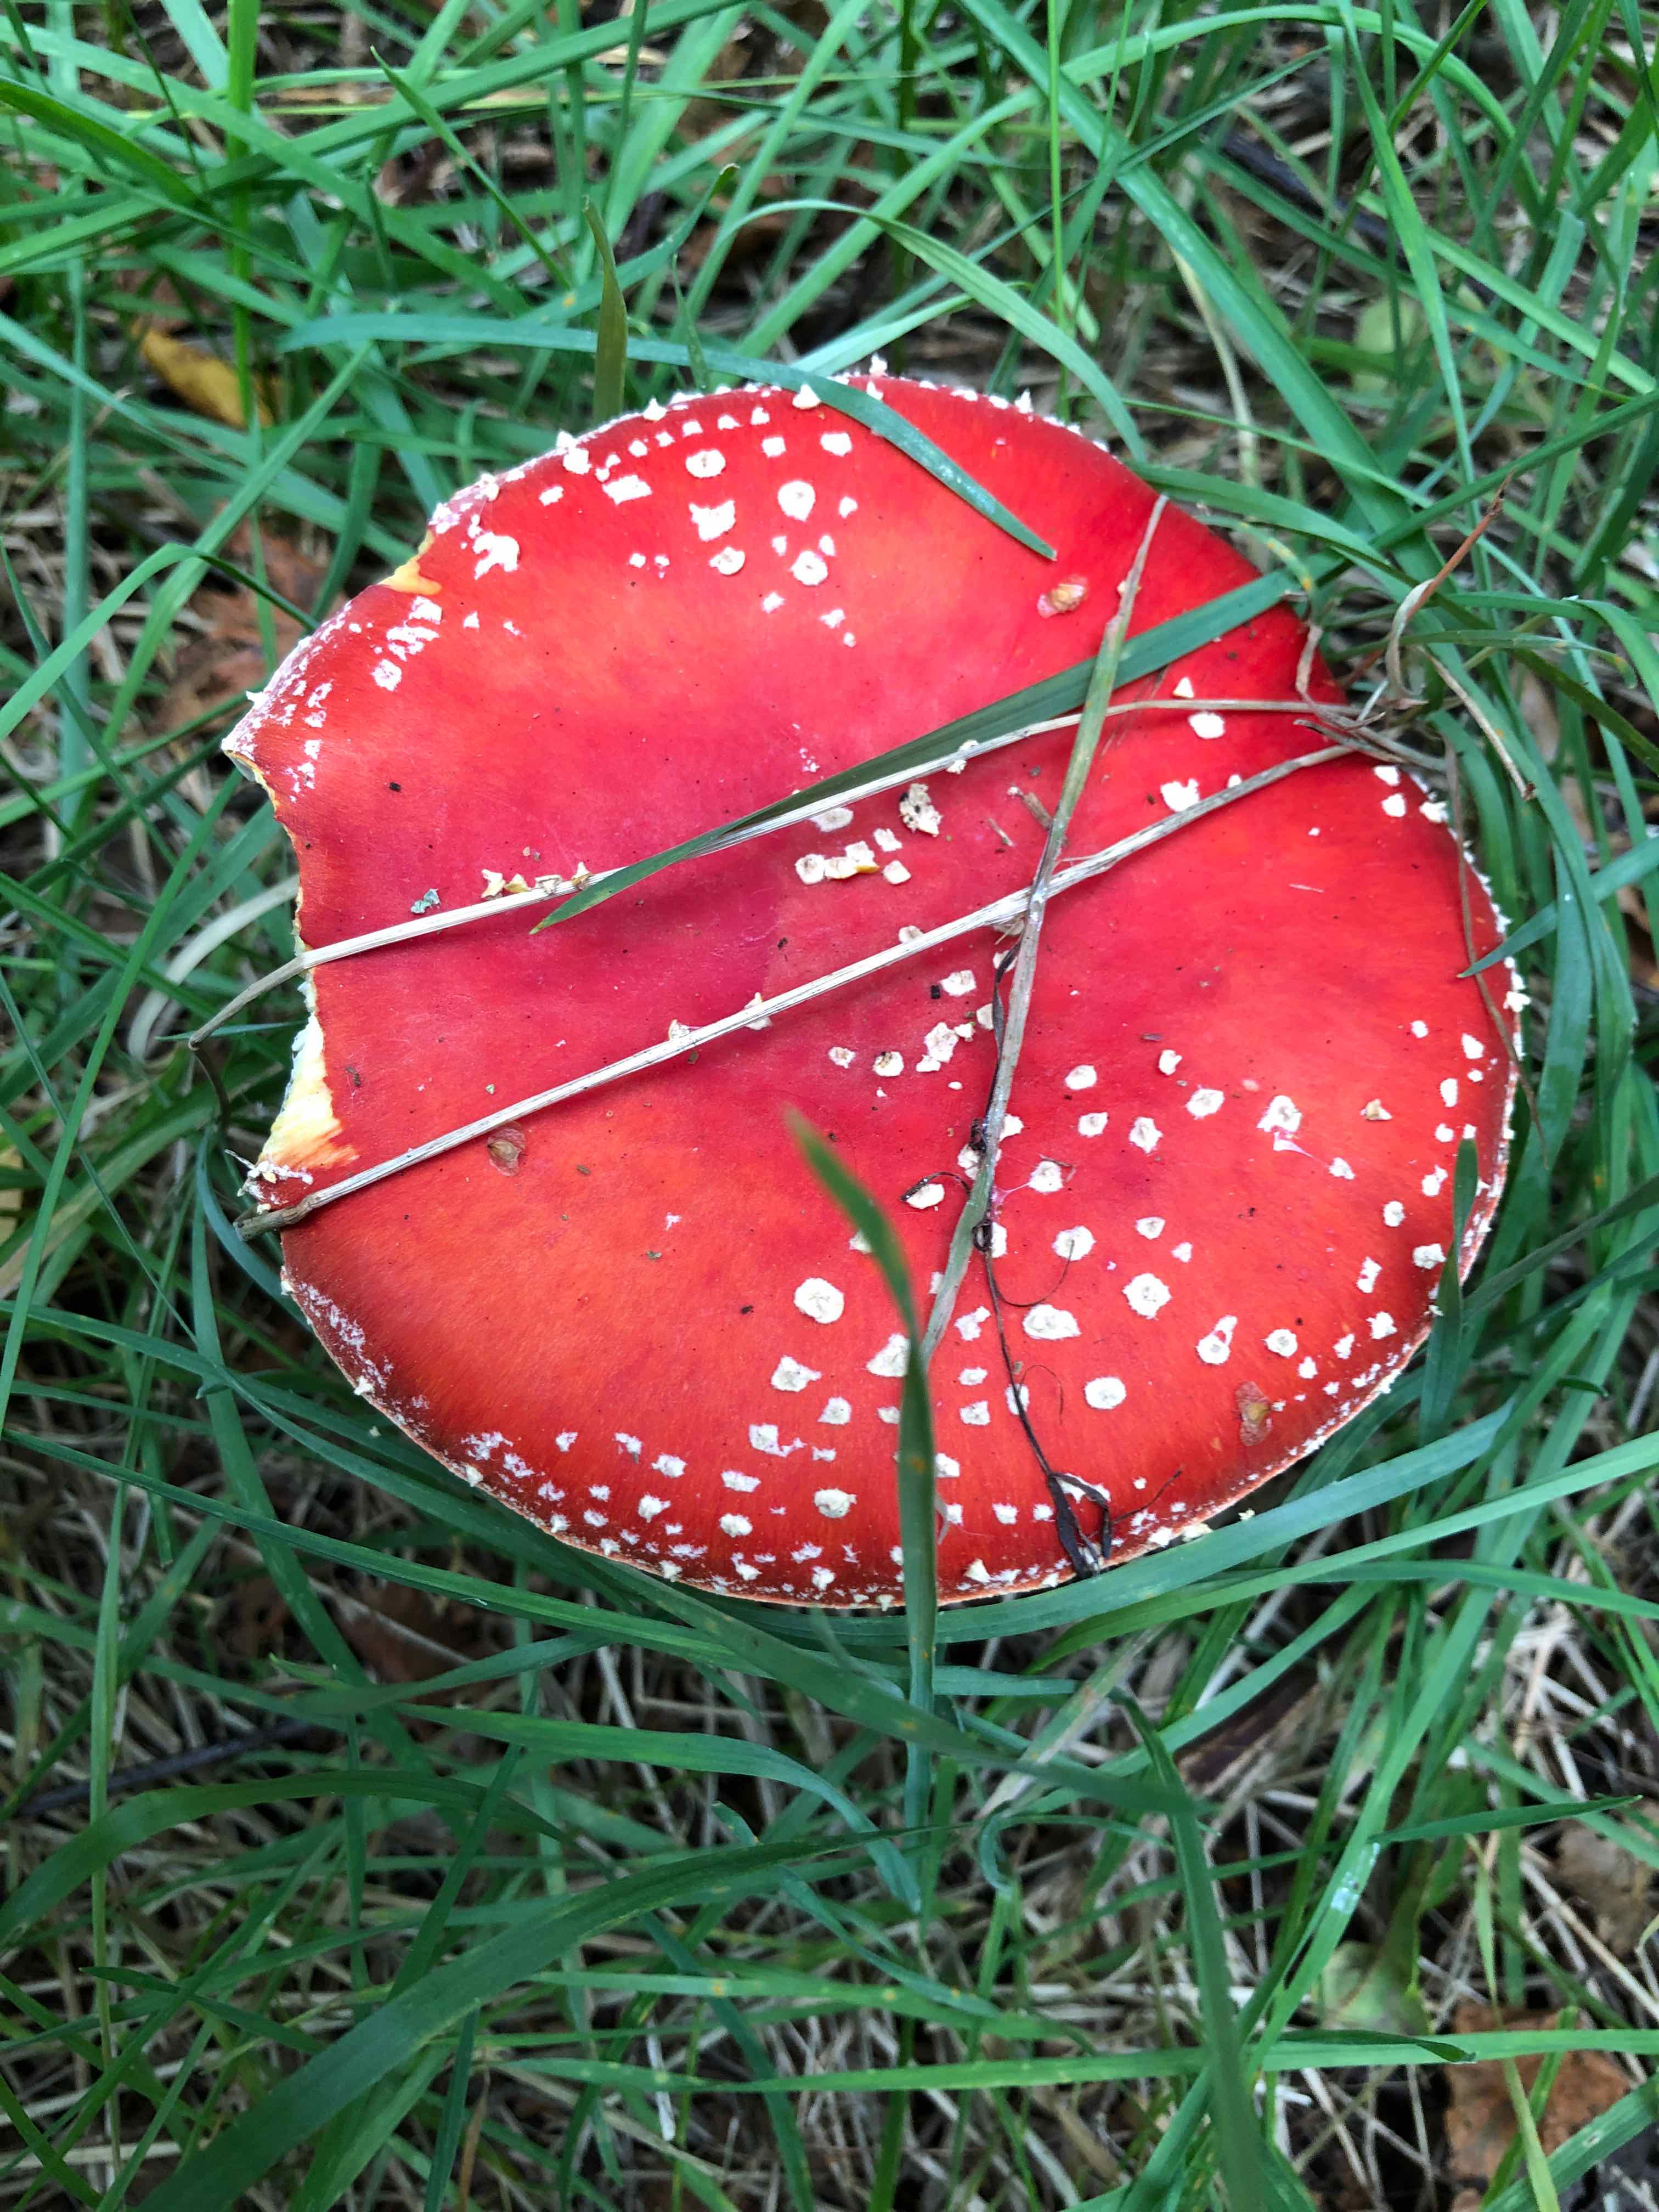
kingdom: Fungi
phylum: Basidiomycota
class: Agaricomycetes
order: Agaricales
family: Amanitaceae
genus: Amanita
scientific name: Amanita muscaria
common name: rød fluesvamp
